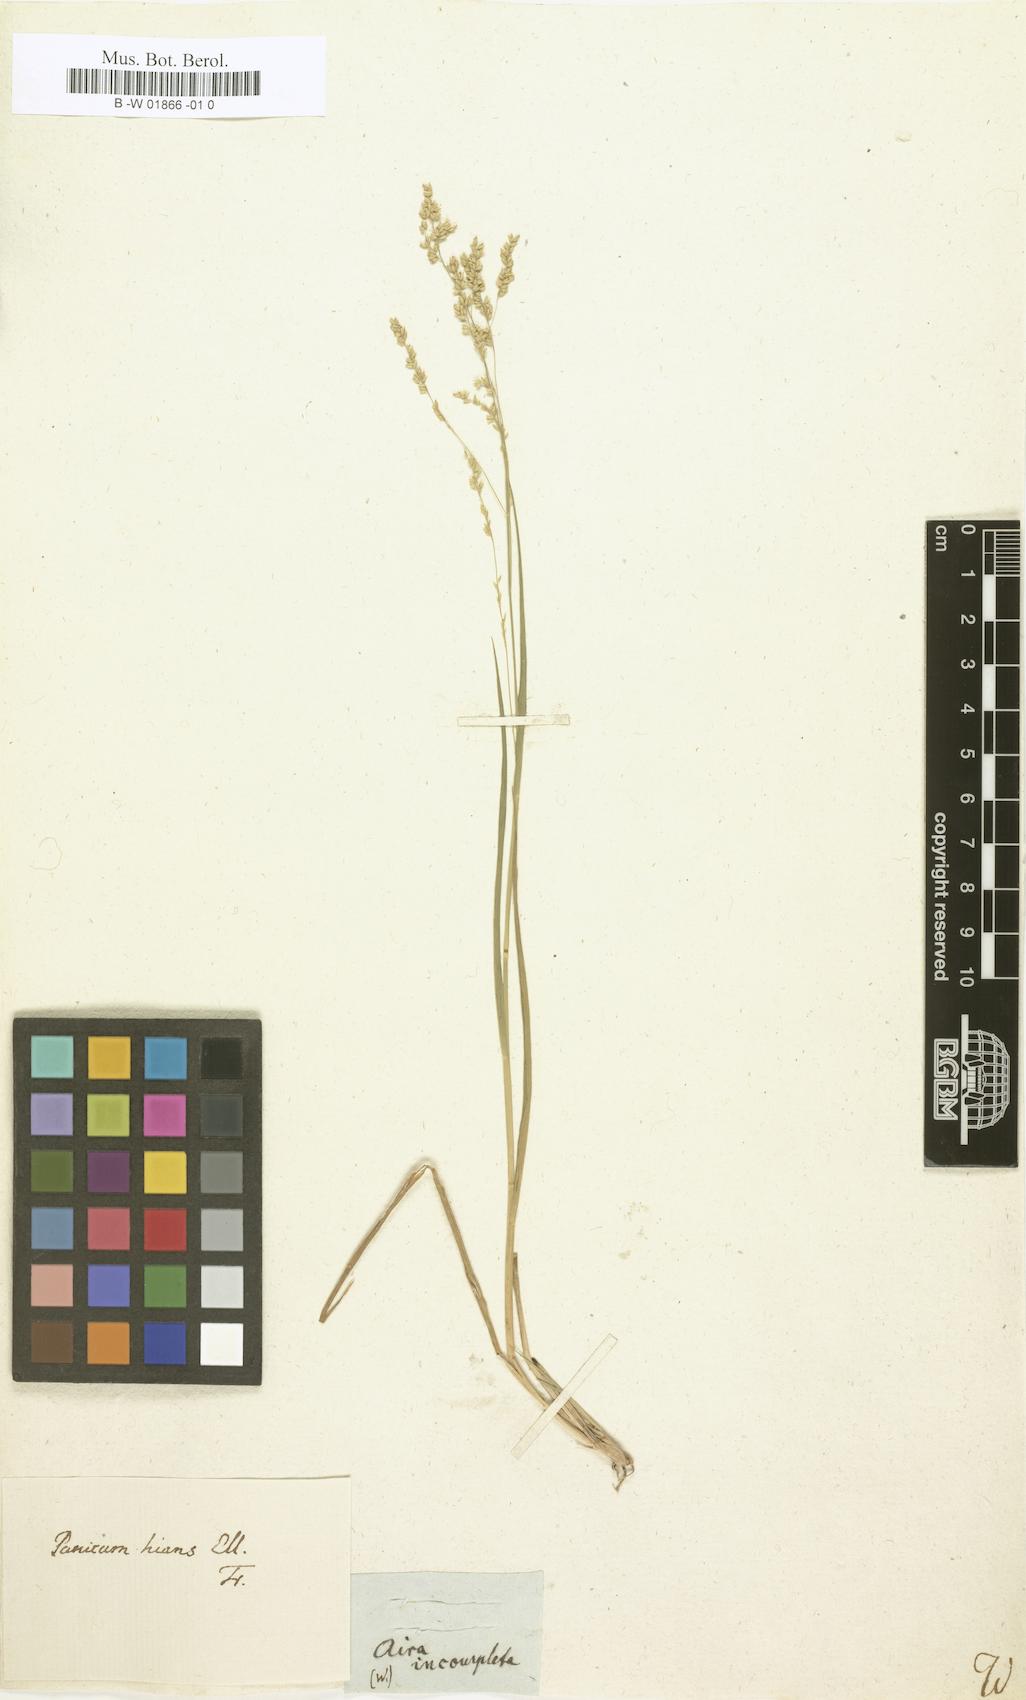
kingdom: Plantae
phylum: Tracheophyta
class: Liliopsida
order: Poales
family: Poaceae
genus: Steinchisma
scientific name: Steinchisma hians
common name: Gaping panic grass
